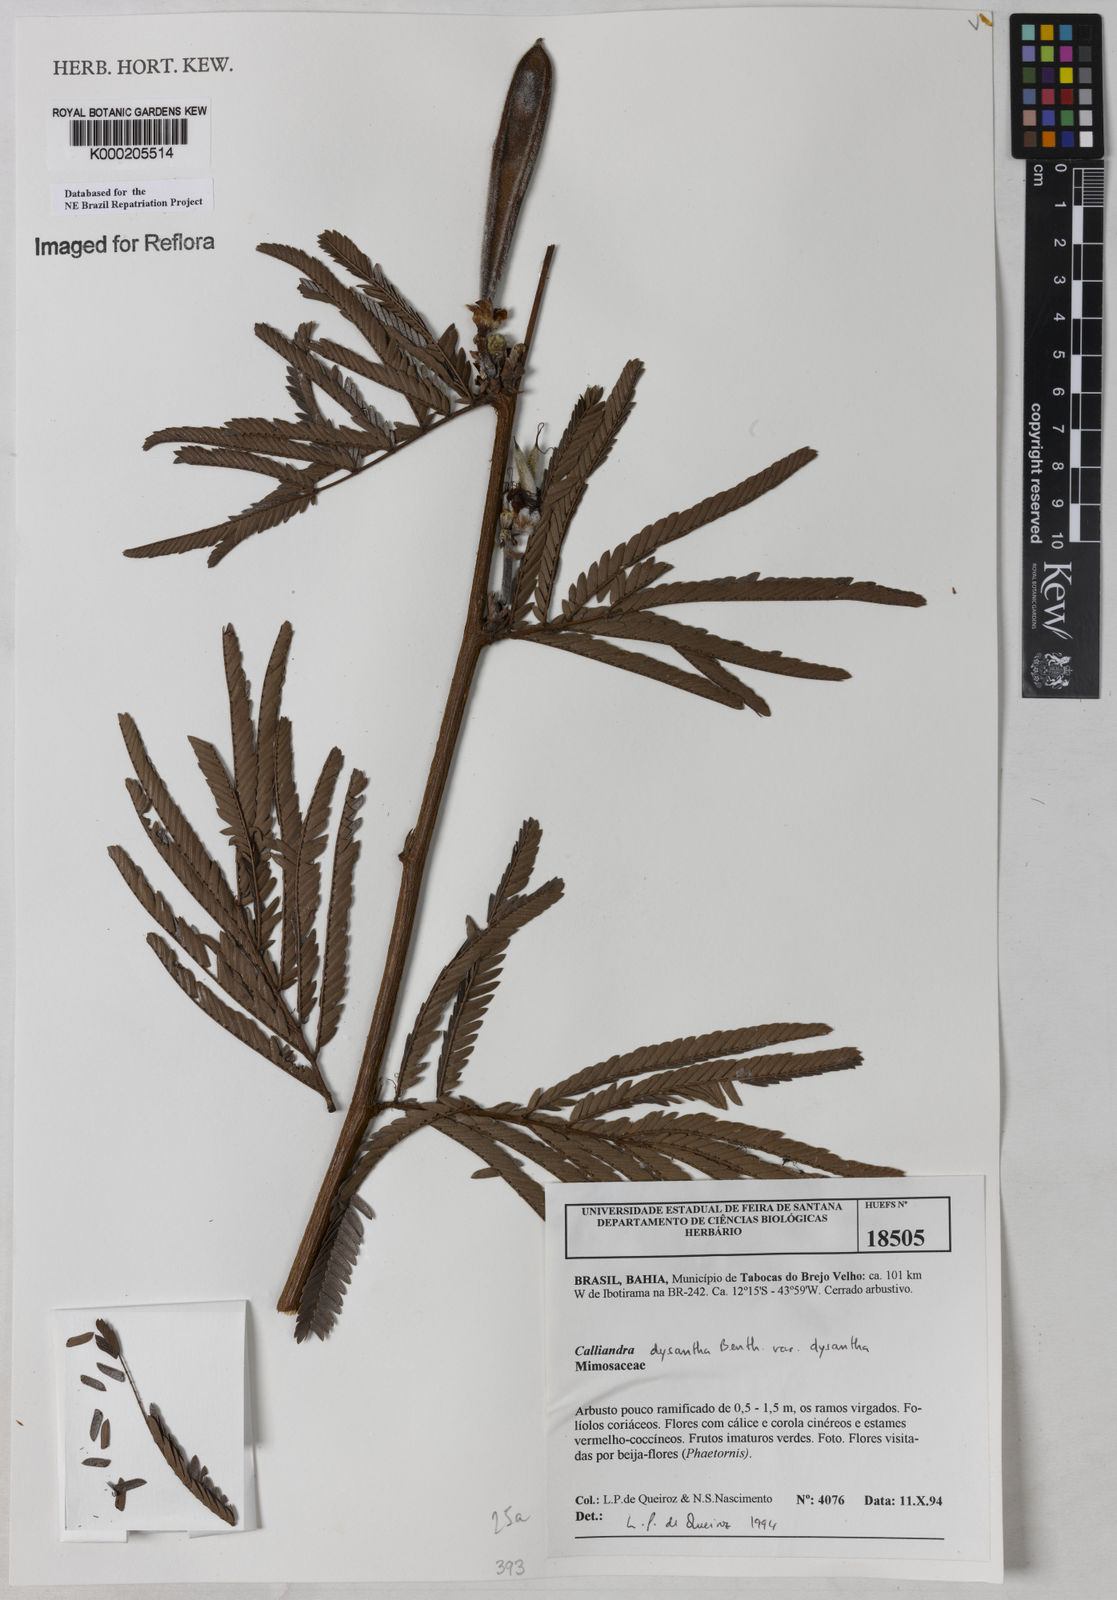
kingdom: Plantae
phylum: Tracheophyta
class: Magnoliopsida
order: Fabales
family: Fabaceae
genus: Calliandra
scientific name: Calliandra dysantha
